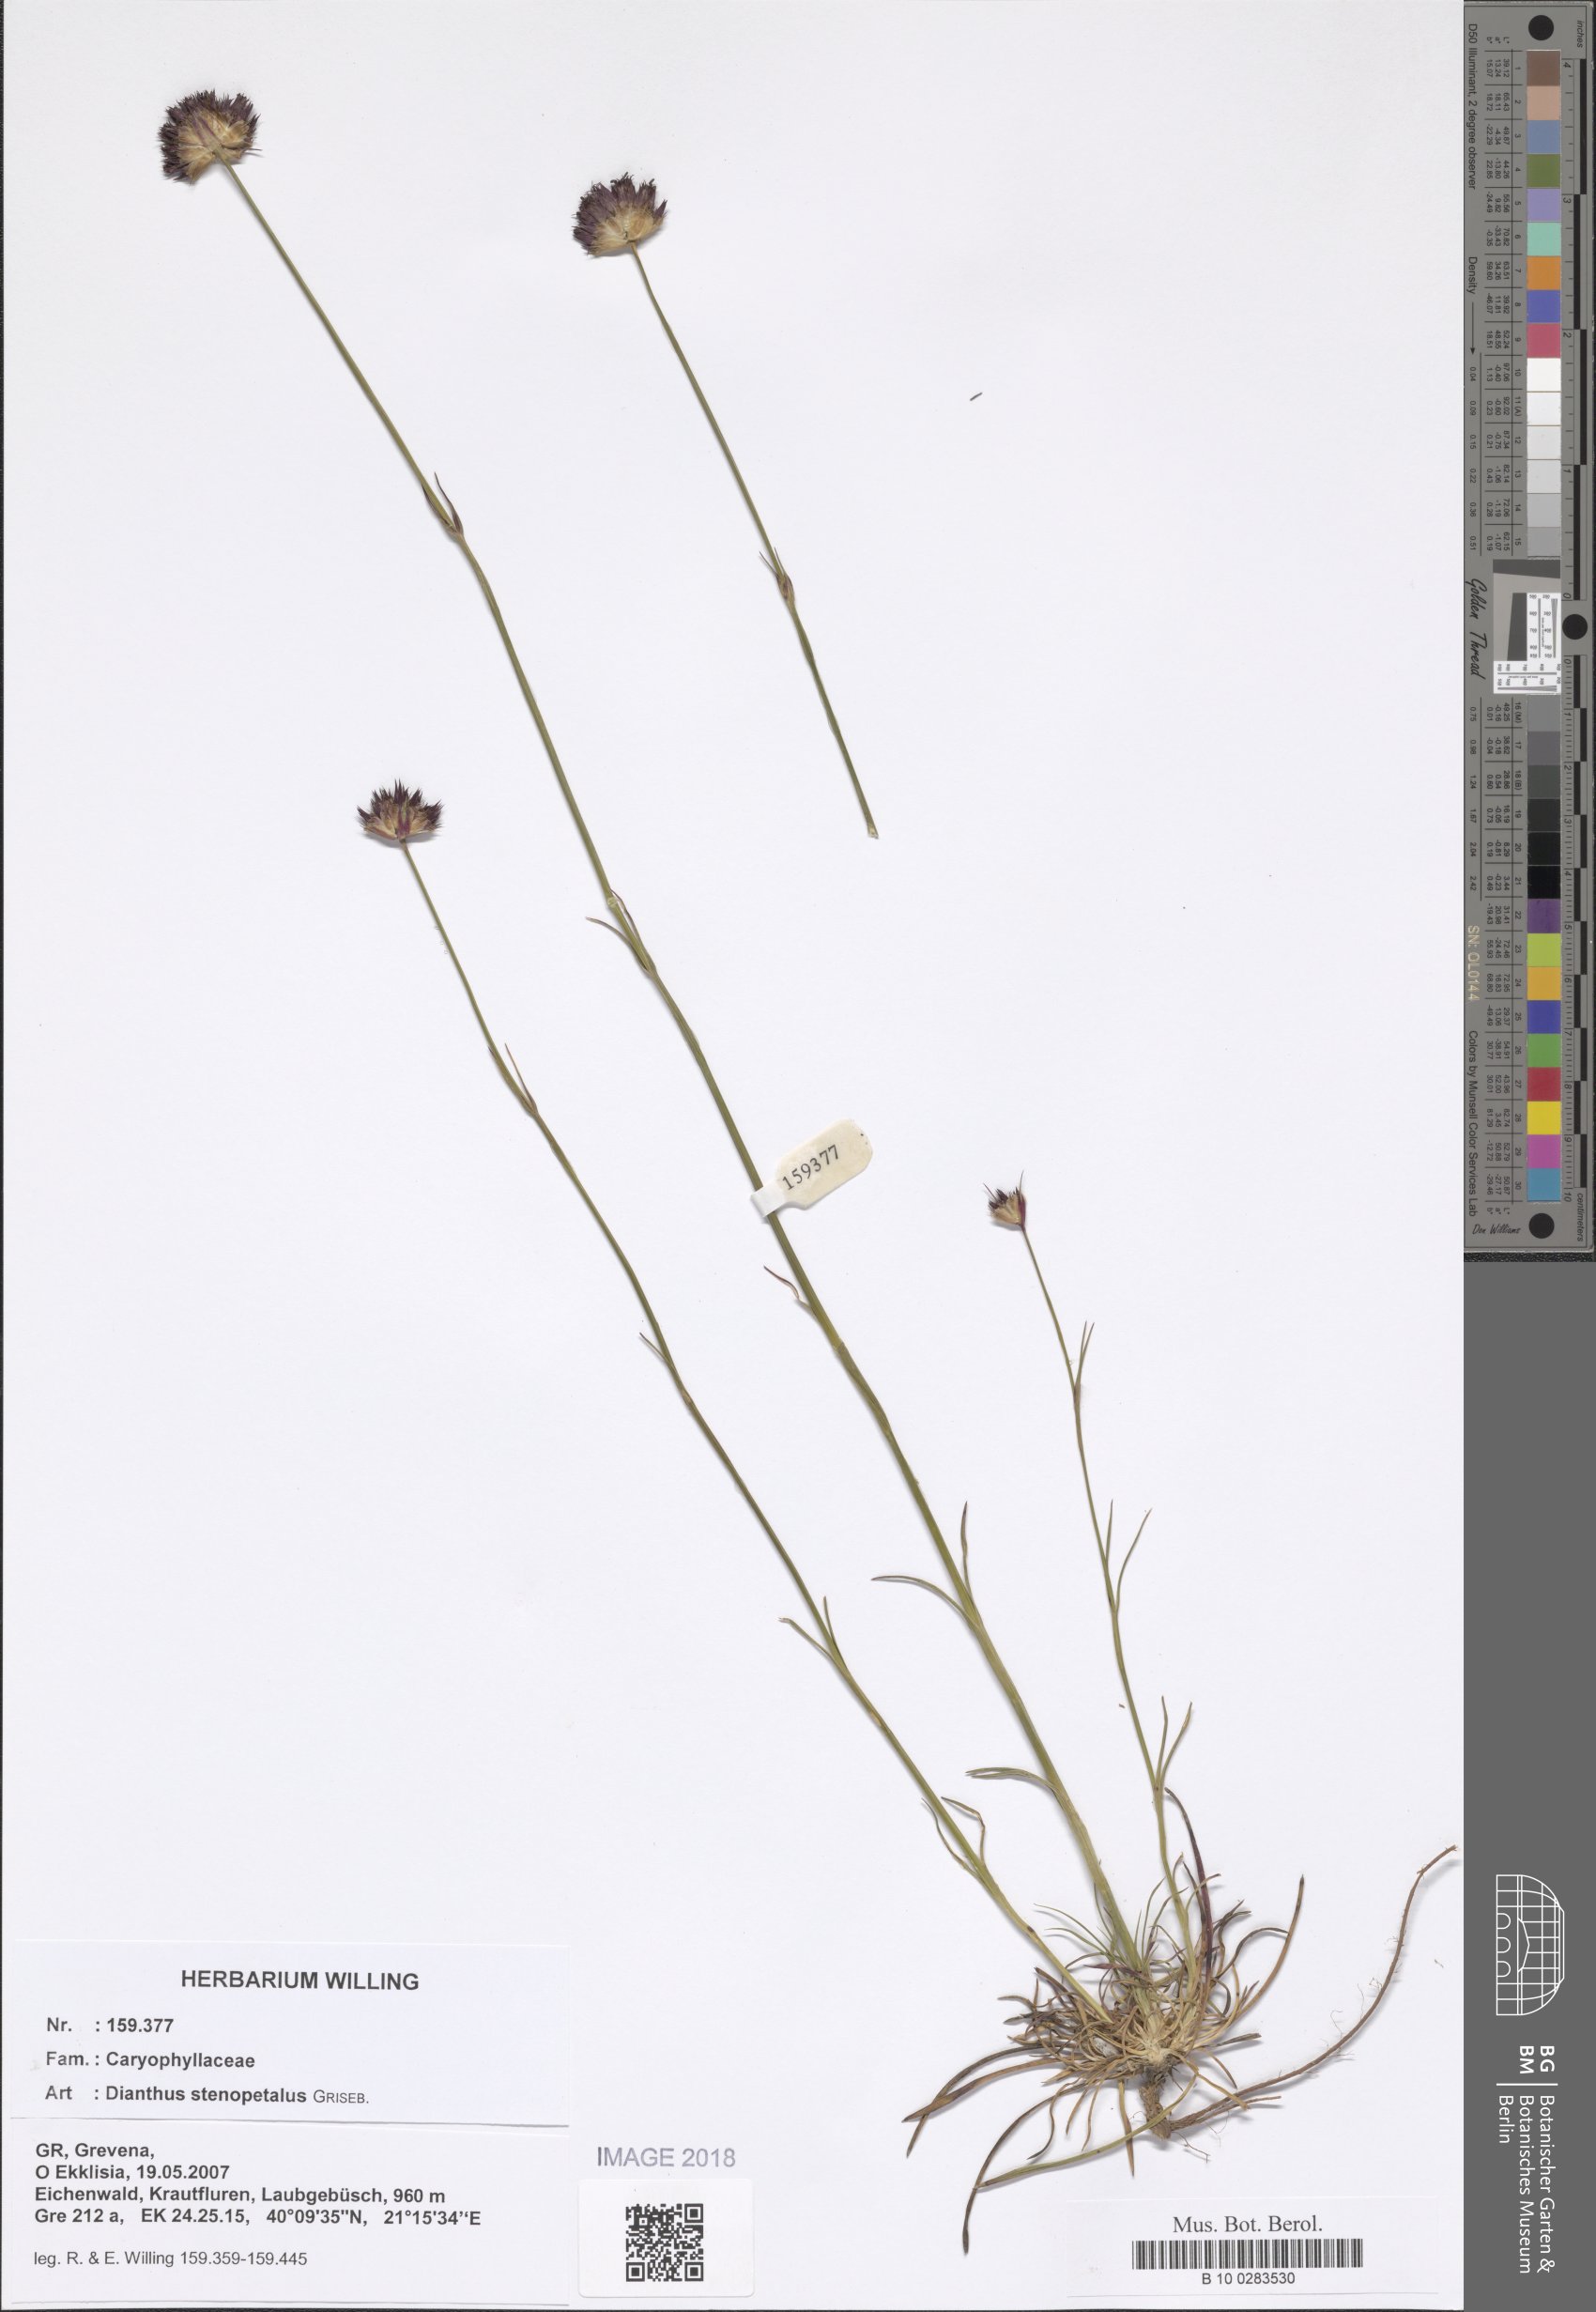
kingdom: Plantae
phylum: Tracheophyta
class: Magnoliopsida
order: Caryophyllales
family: Caryophyllaceae
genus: Dianthus
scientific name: Dianthus stenopetalus
